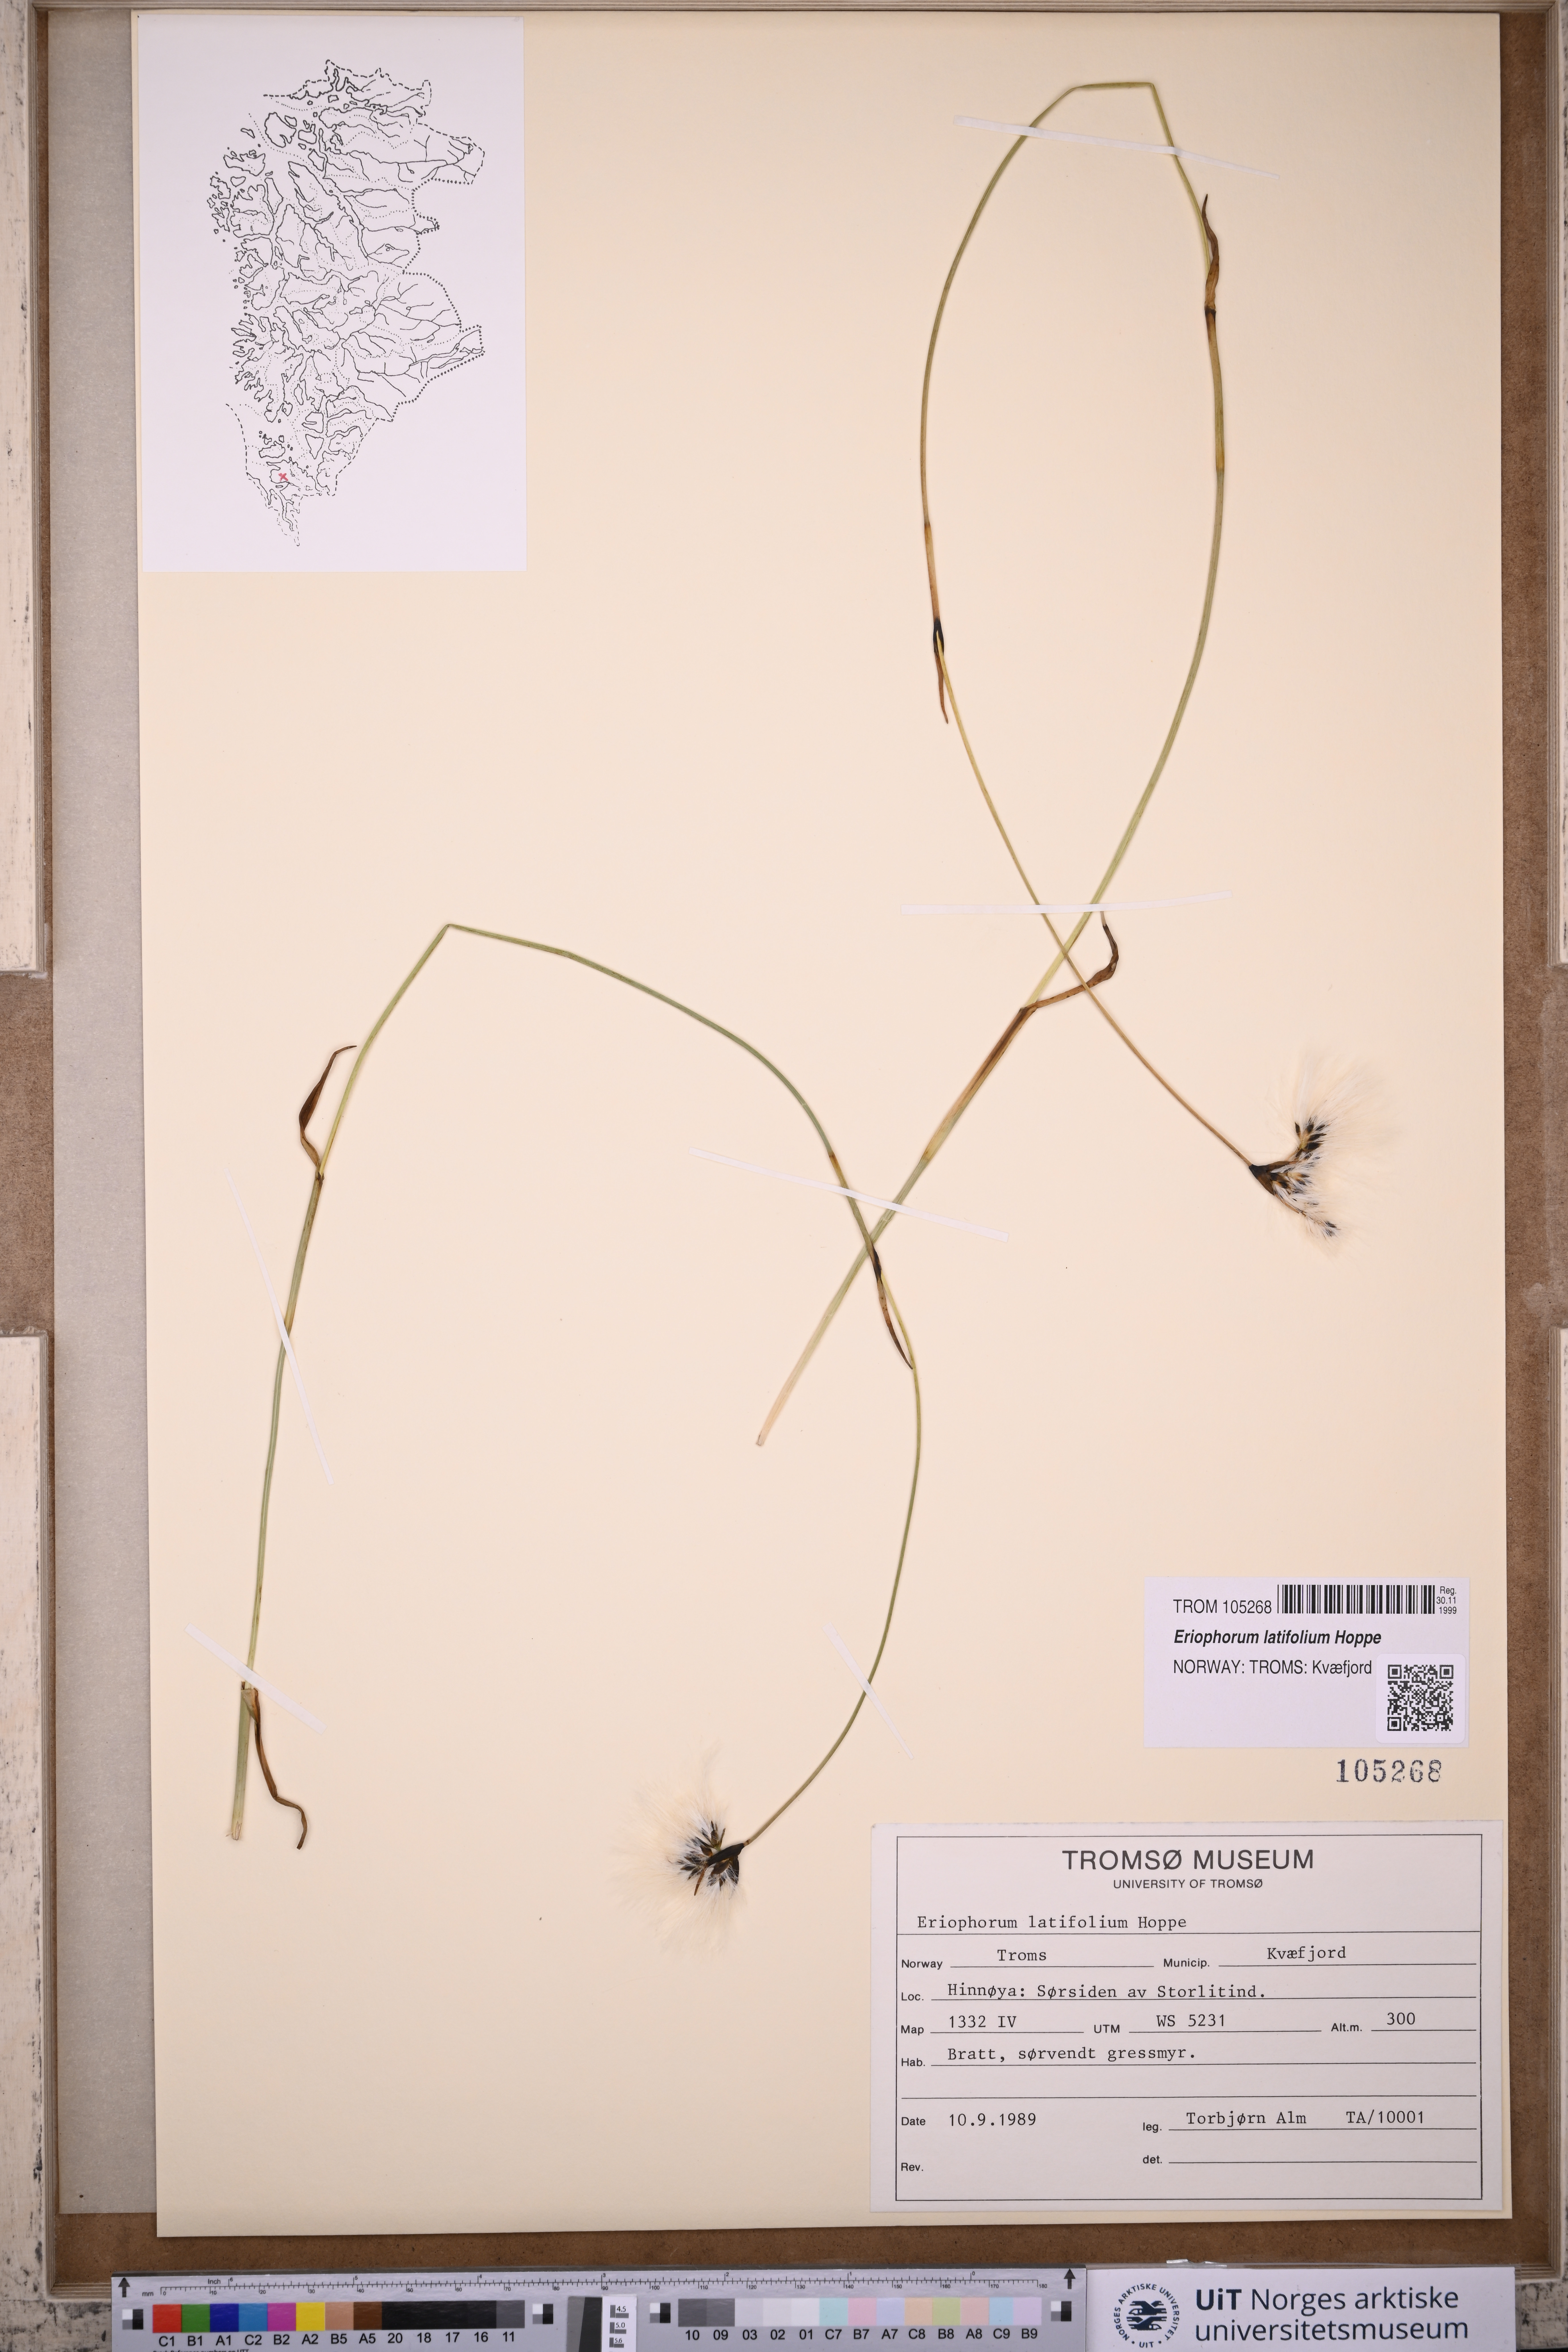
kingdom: Plantae
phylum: Tracheophyta
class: Liliopsida
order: Poales
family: Cyperaceae
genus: Eriophorum
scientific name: Eriophorum latifolium
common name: Broad-leaved cottongrass
